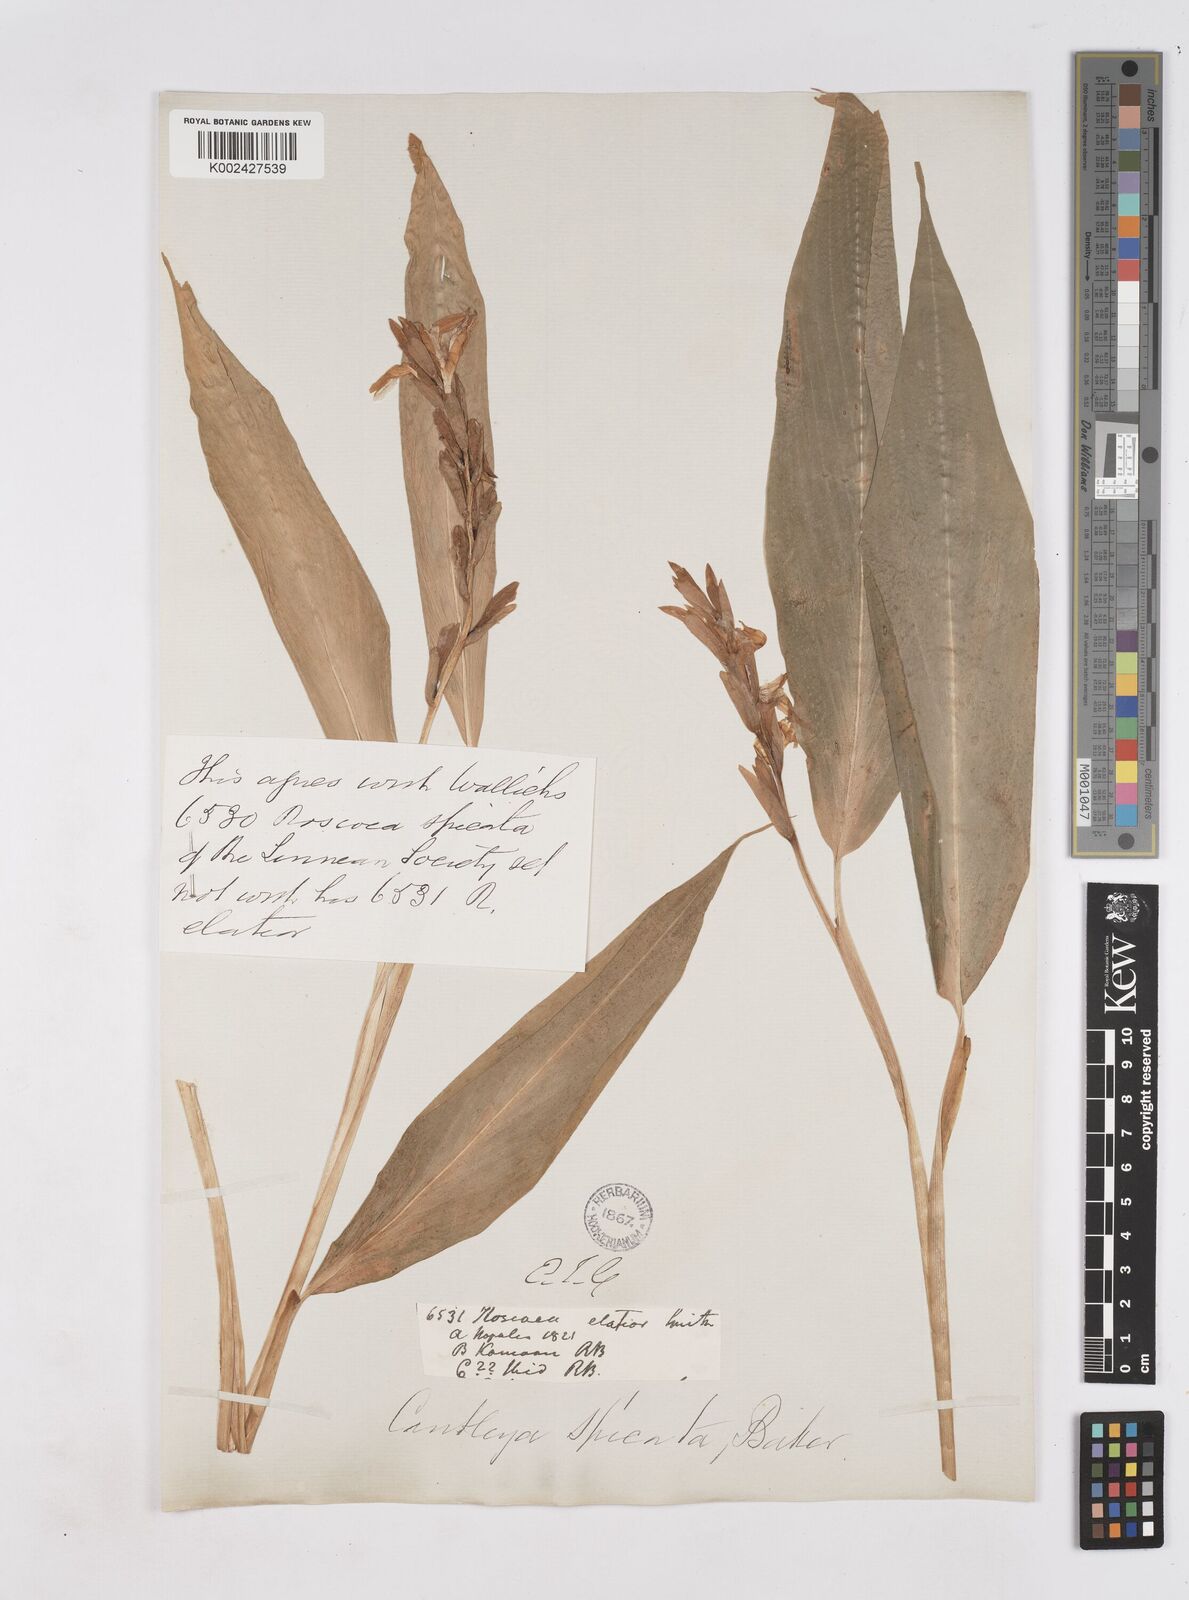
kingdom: Plantae
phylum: Tracheophyta
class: Liliopsida
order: Zingiberales
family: Zingiberaceae
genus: Cautleya
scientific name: Cautleya spicata
